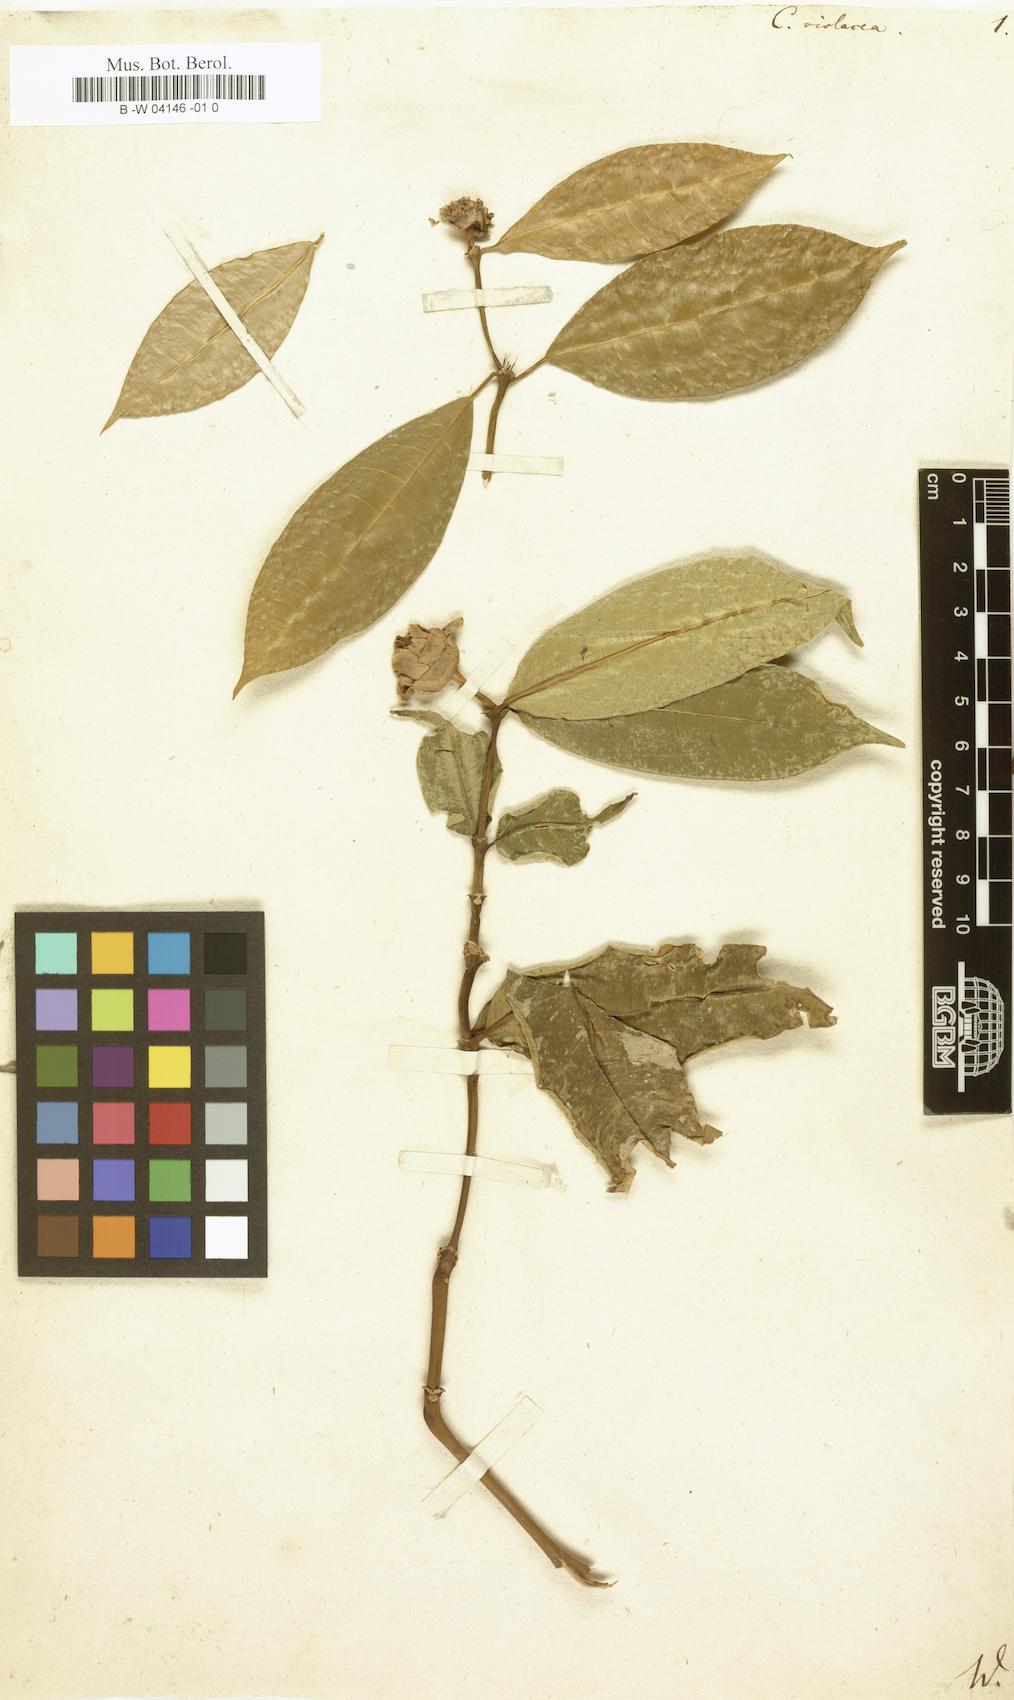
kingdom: Plantae
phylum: Tracheophyta
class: Magnoliopsida
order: Gentianales
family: Rubiaceae
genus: Palicourea
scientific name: Palicourea apoda
